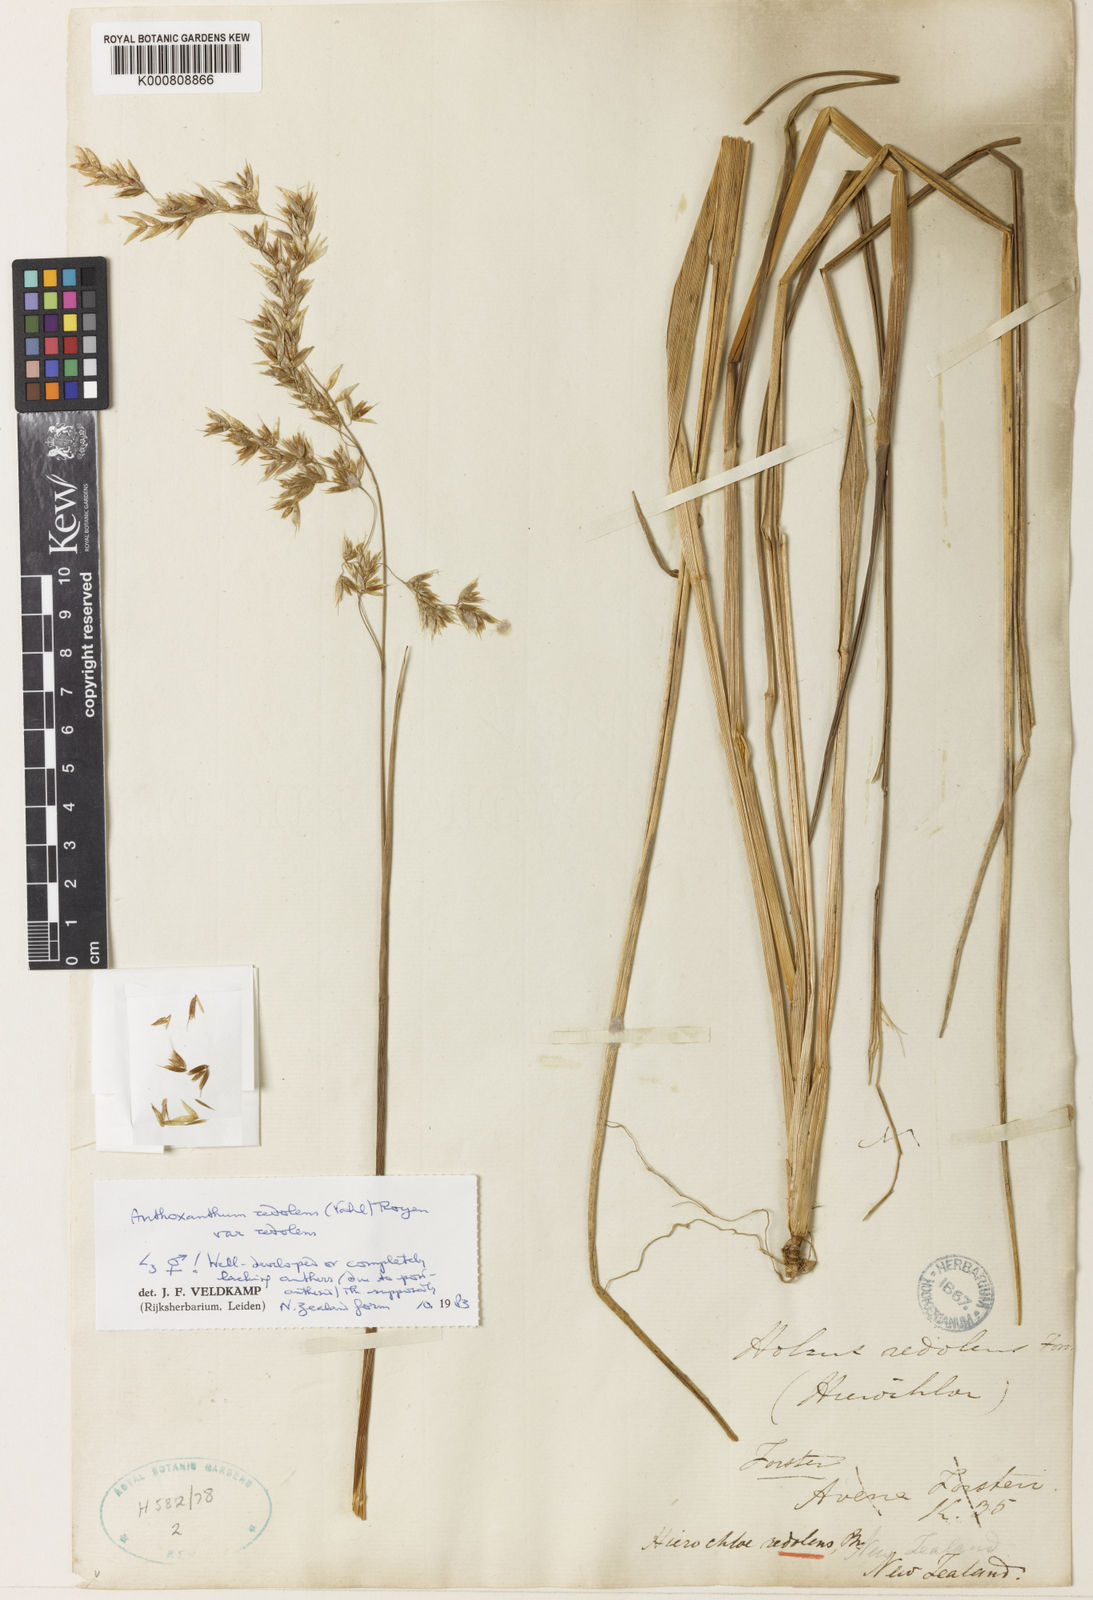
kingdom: Plantae
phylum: Tracheophyta
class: Liliopsida
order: Poales
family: Poaceae
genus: Hierochloe
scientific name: Hierochloe
